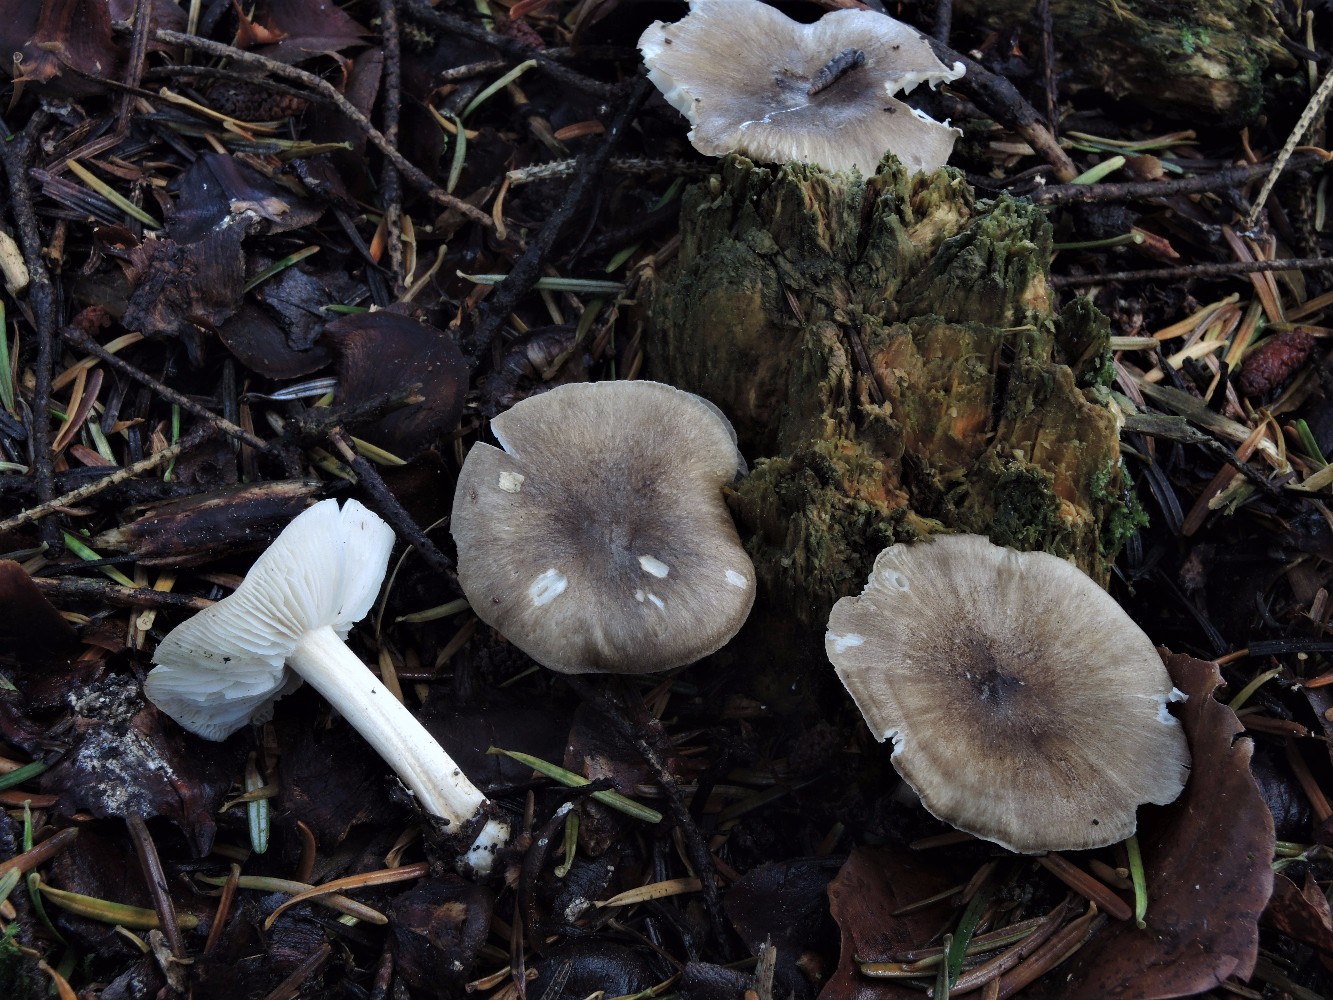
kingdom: Fungi
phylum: Basidiomycota
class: Agaricomycetes
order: Agaricales
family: Tricholomataceae
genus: Megacollybia
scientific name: Megacollybia platyphylla
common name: bredbladet væbnerhat
